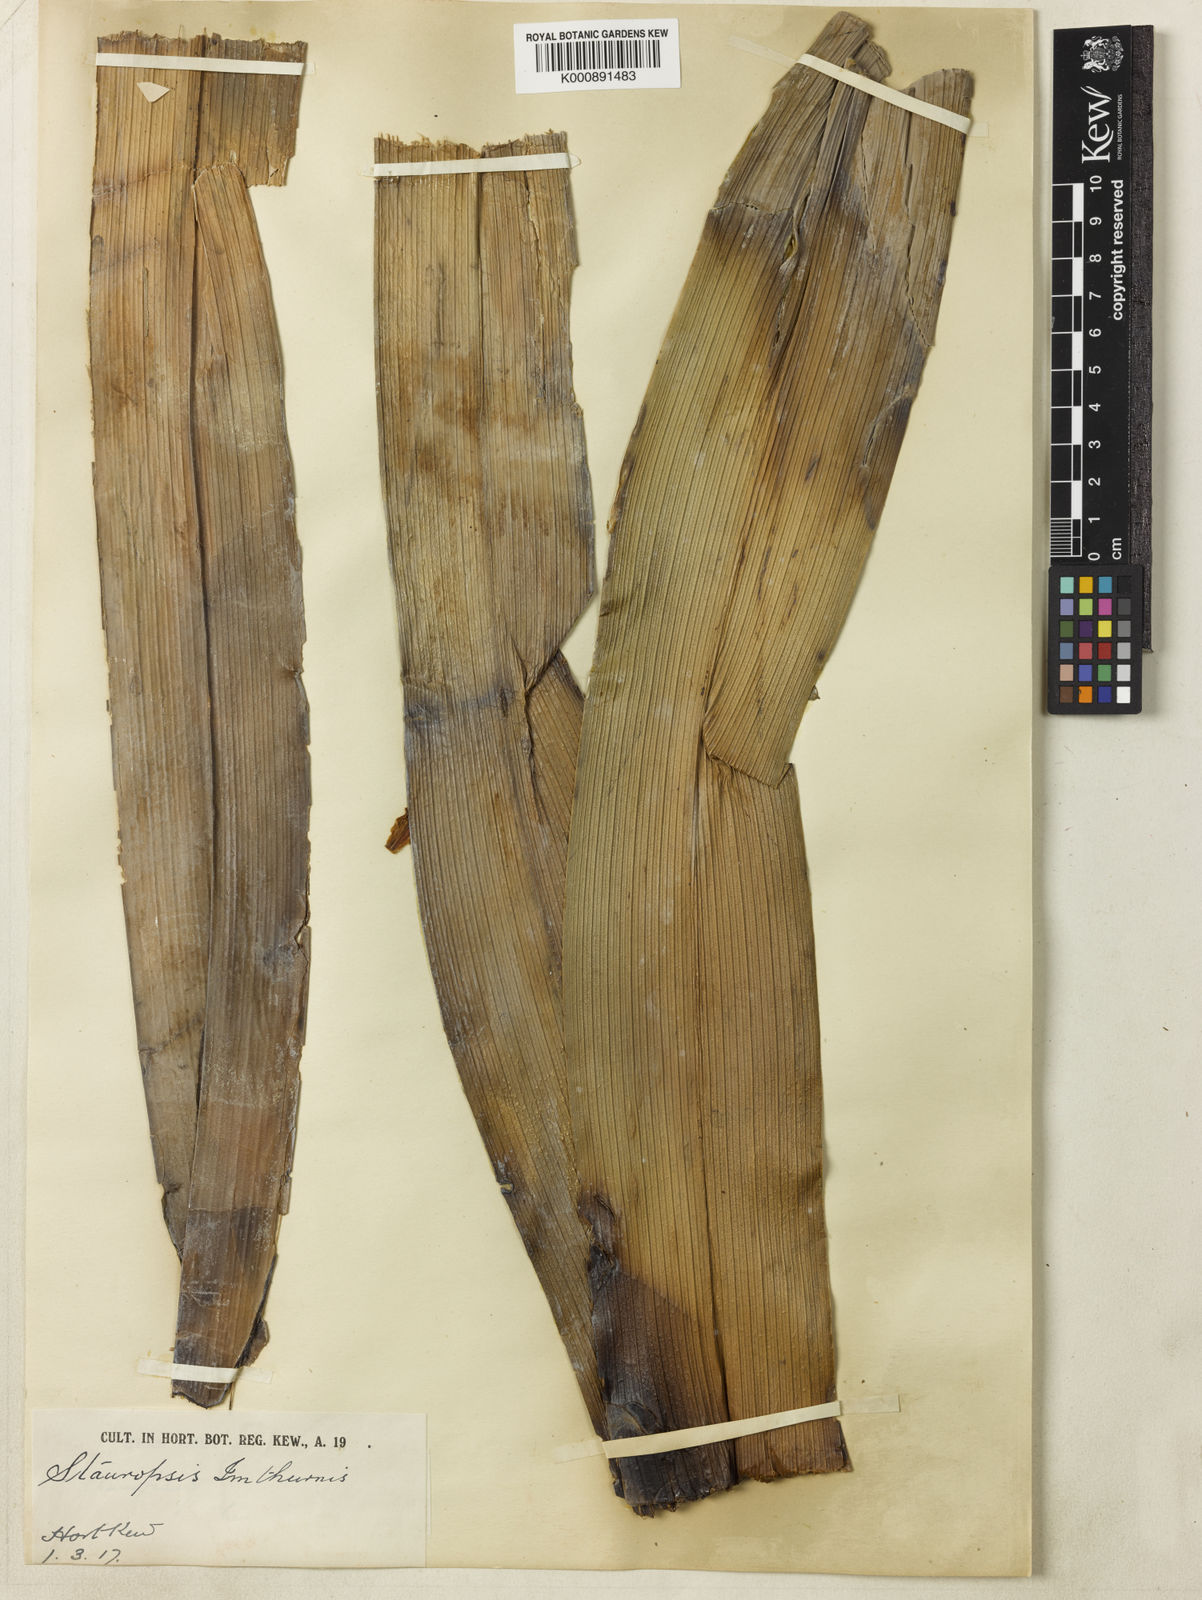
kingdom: Plantae
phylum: Tracheophyta
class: Liliopsida
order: Asparagales
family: Orchidaceae
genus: Dimorphorchis
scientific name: Dimorphorchis beccarii
